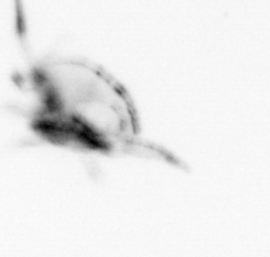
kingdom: Animalia
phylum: Arthropoda
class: Copepoda
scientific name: Copepoda
